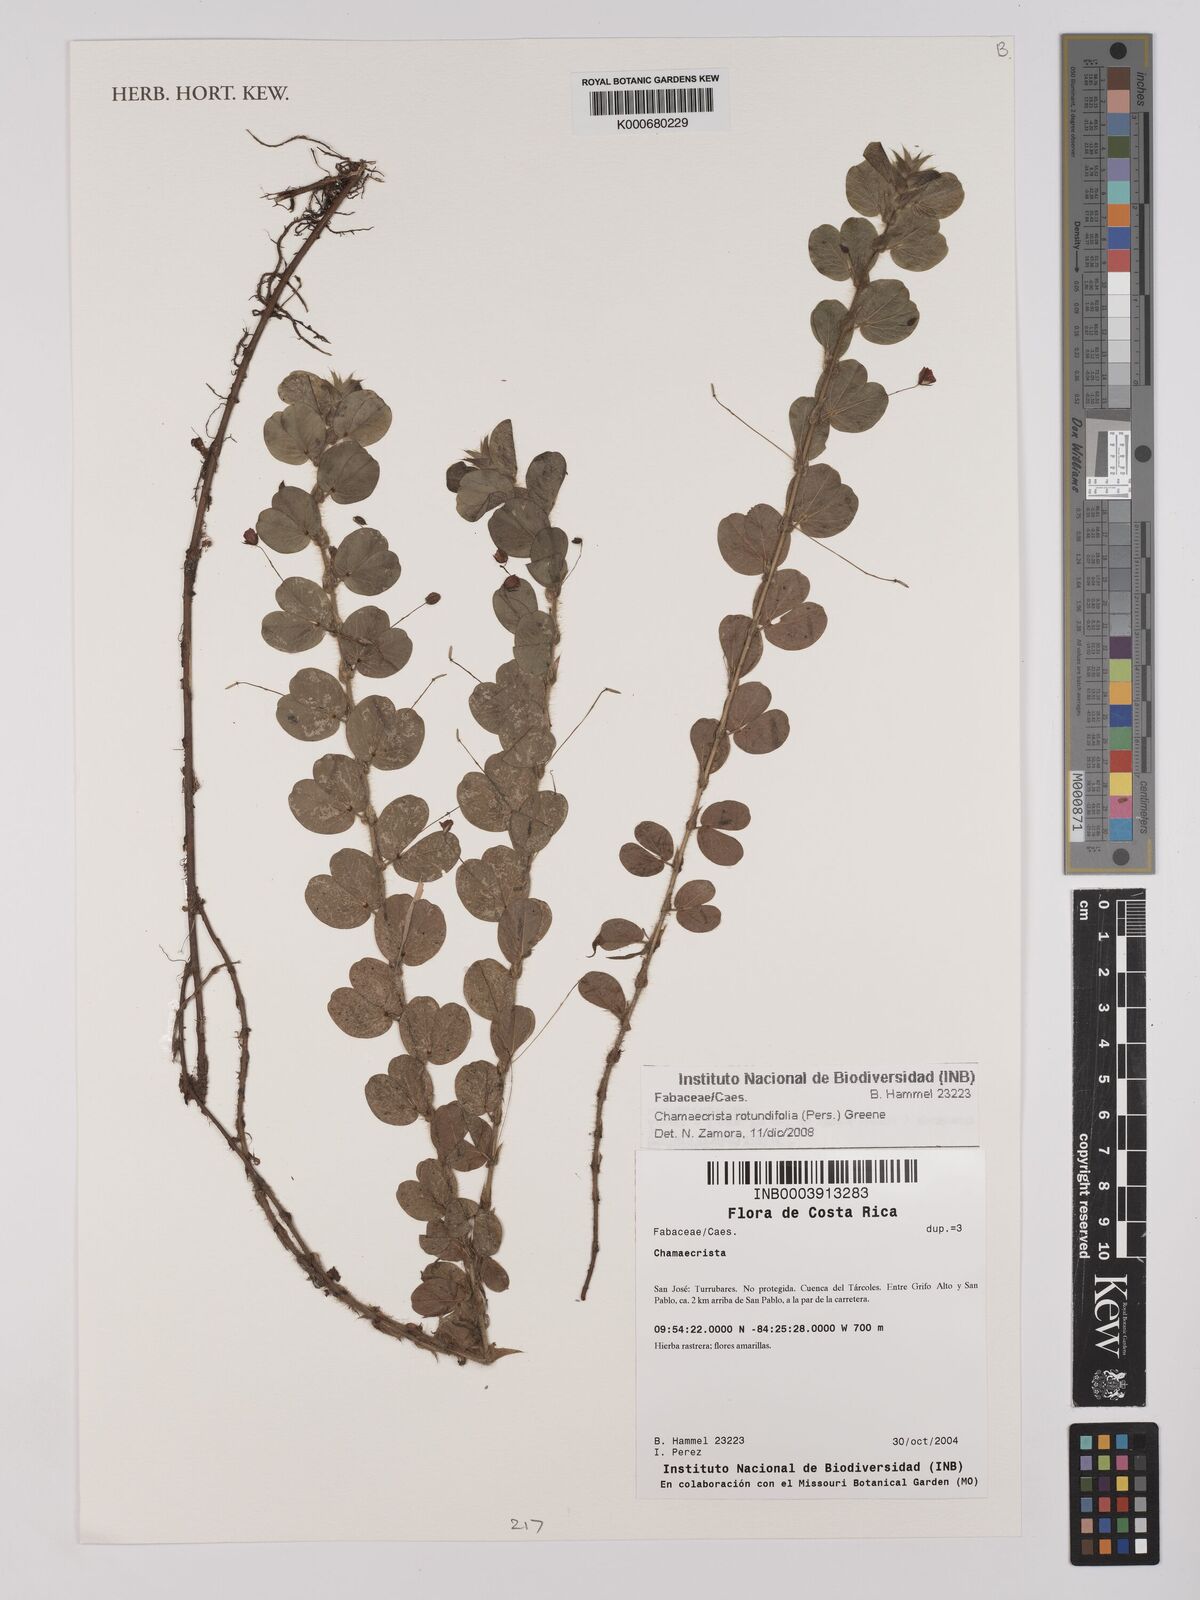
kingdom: Plantae
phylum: Tracheophyta
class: Magnoliopsida
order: Fabales
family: Fabaceae
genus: Chamaecrista
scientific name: Chamaecrista rotundifolia
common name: Round-leaf cassia
